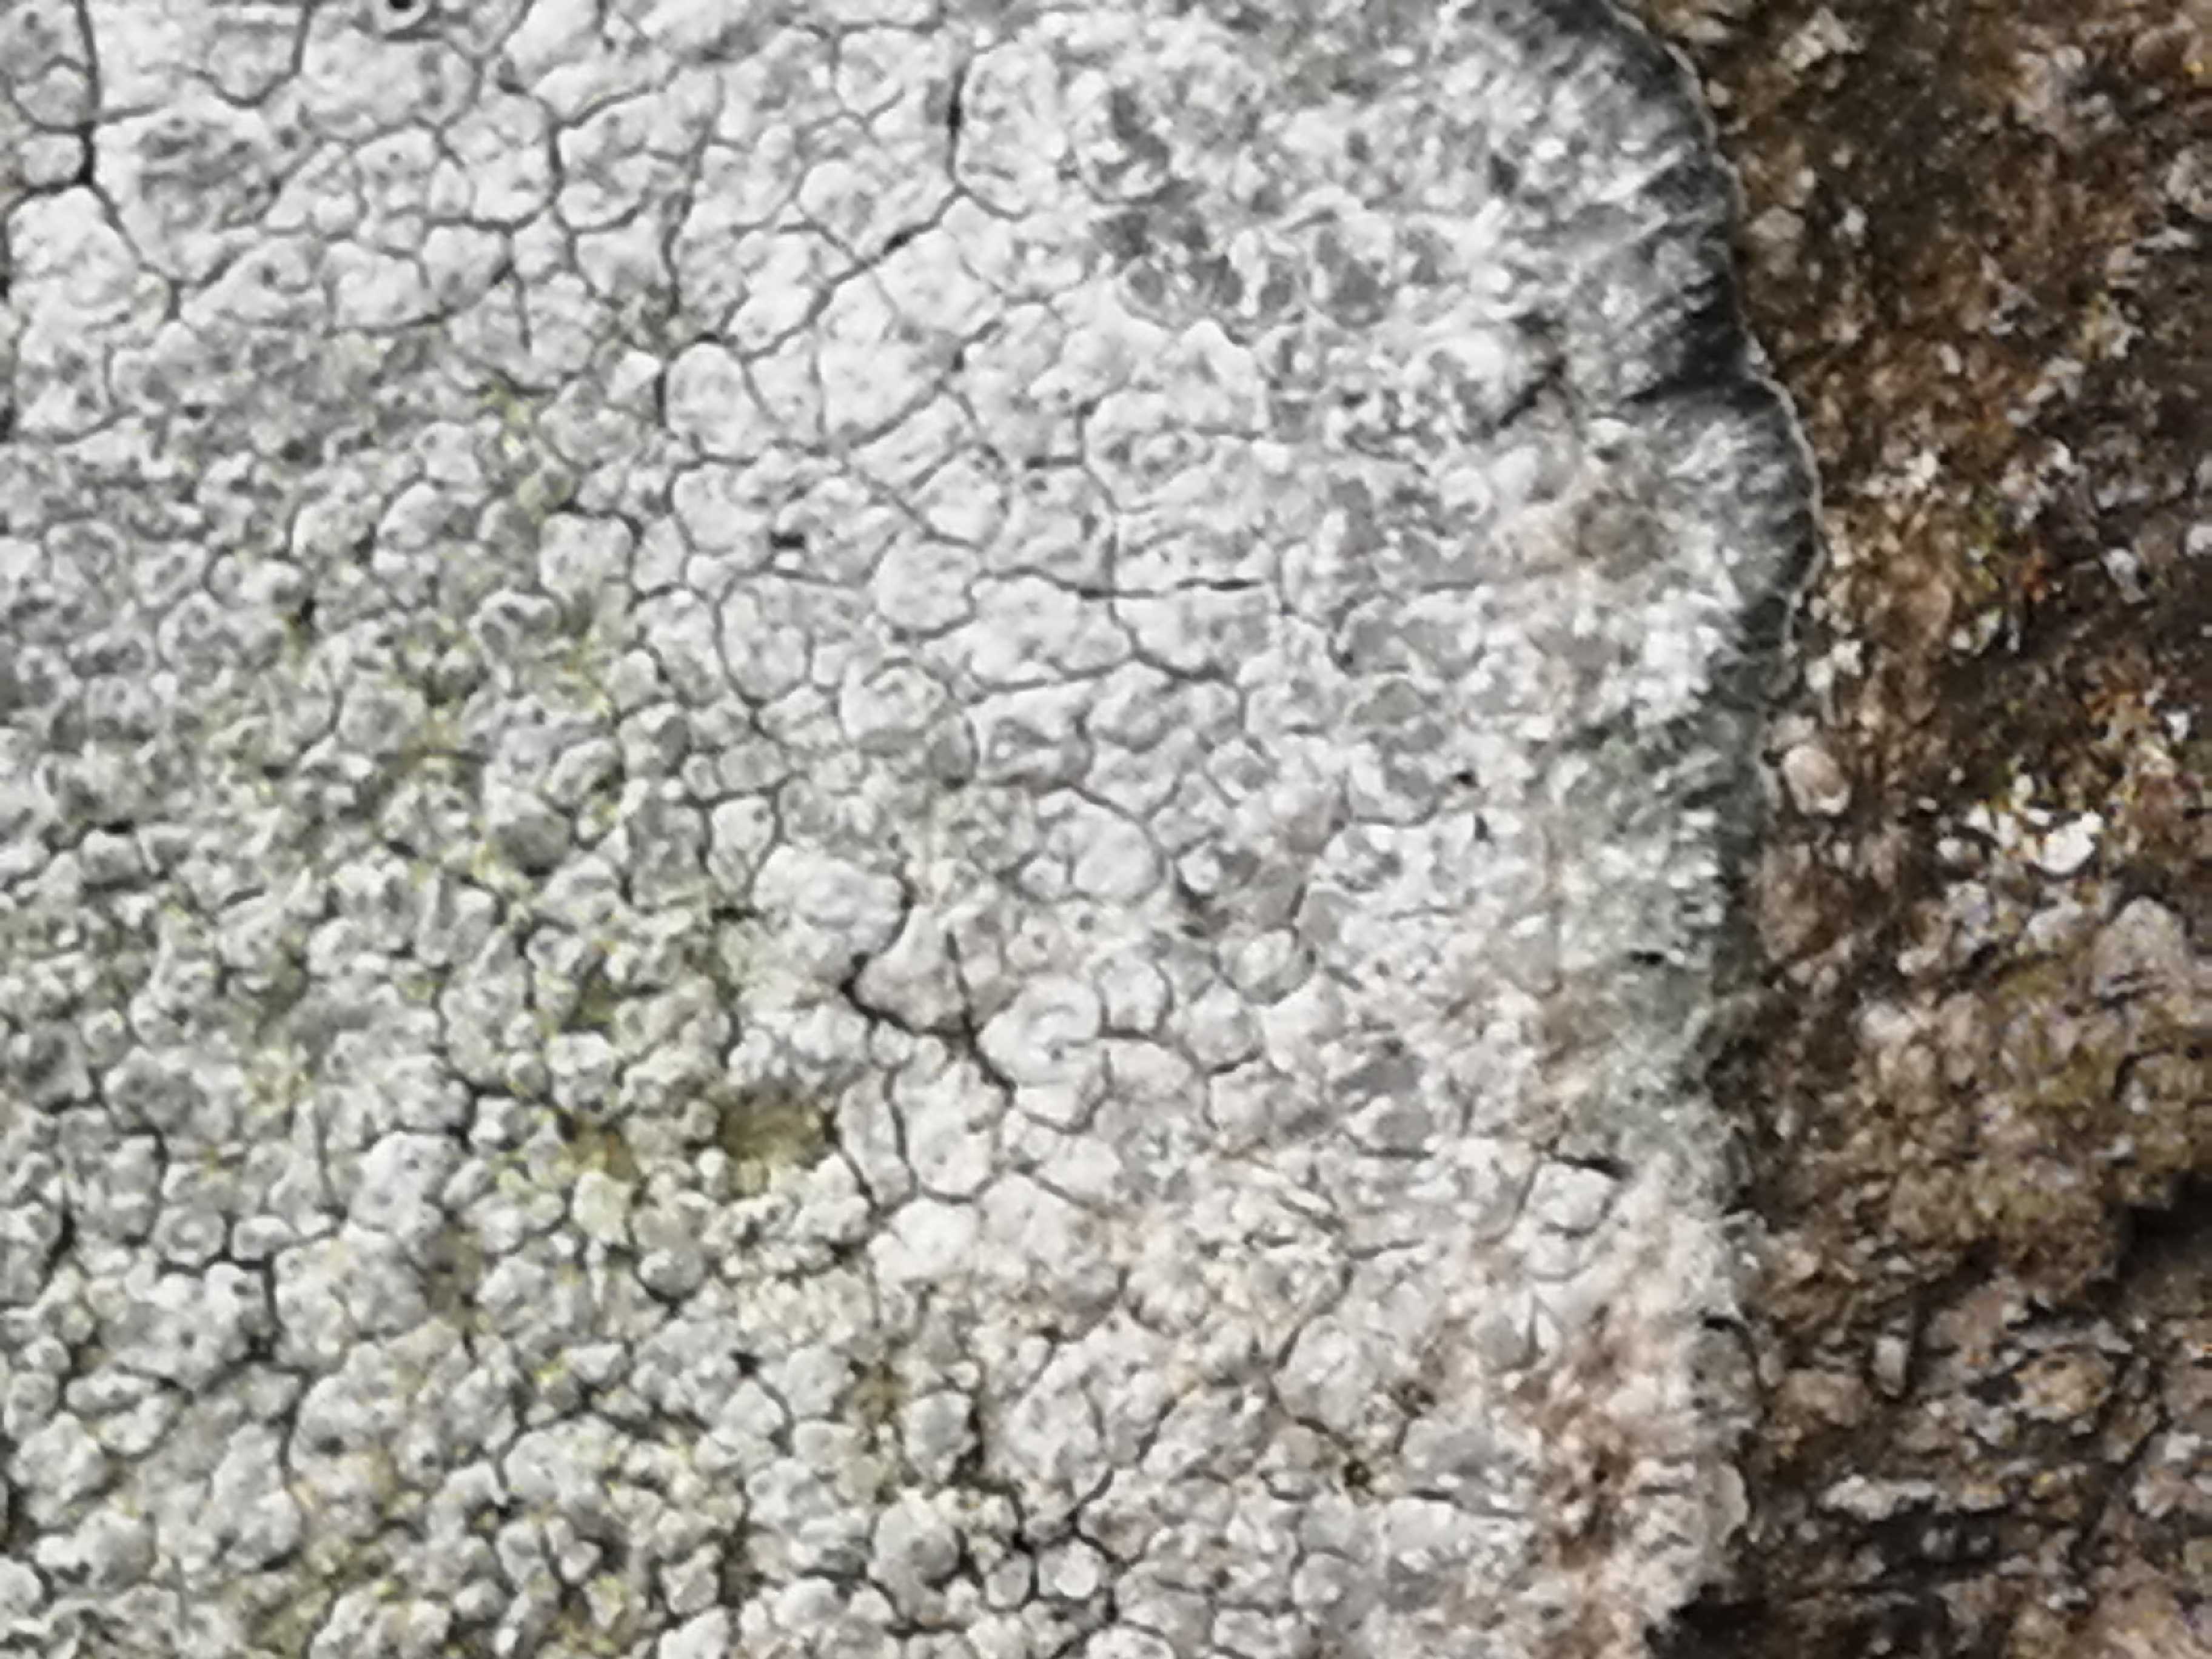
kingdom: Fungi
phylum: Ascomycota
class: Lecanoromycetes
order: Pertusariales
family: Megasporaceae
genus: Circinaria
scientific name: Circinaria caesiocinerea
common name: fuglestens-hulskivelav
